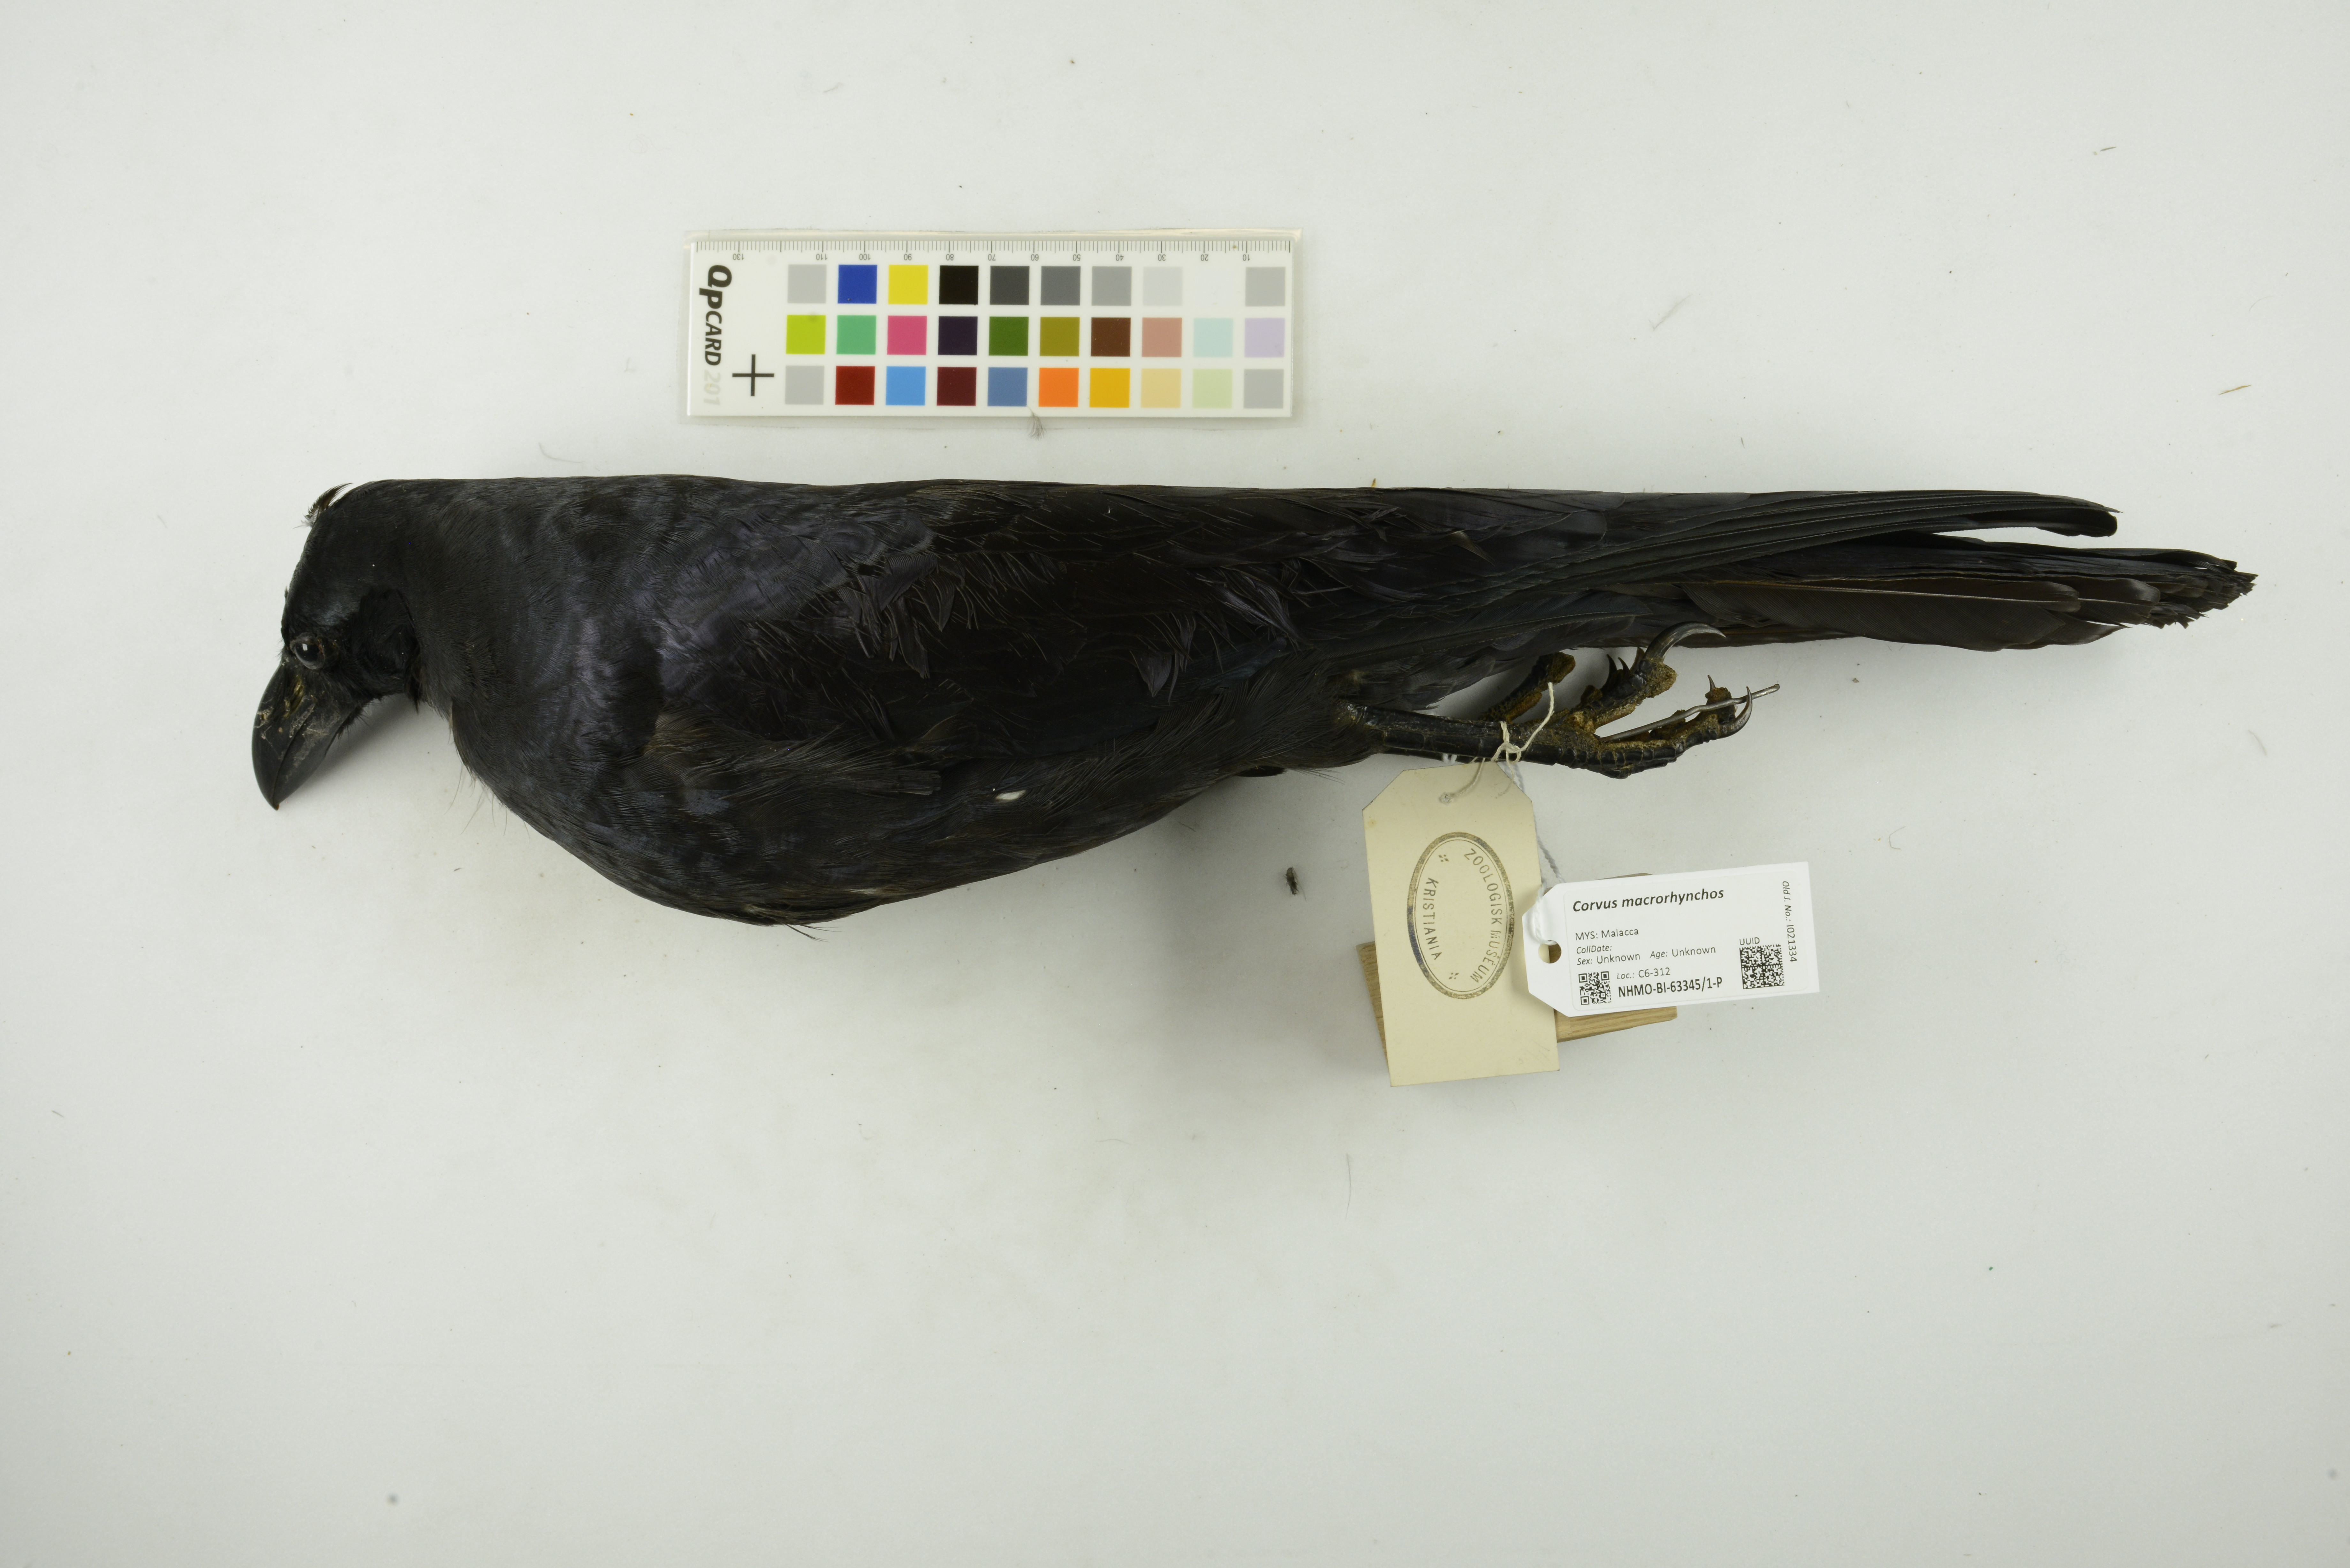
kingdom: Animalia
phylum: Chordata
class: Aves
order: Passeriformes
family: Corvidae
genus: Corvus
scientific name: Corvus macrorhynchos
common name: Large-billed crow
